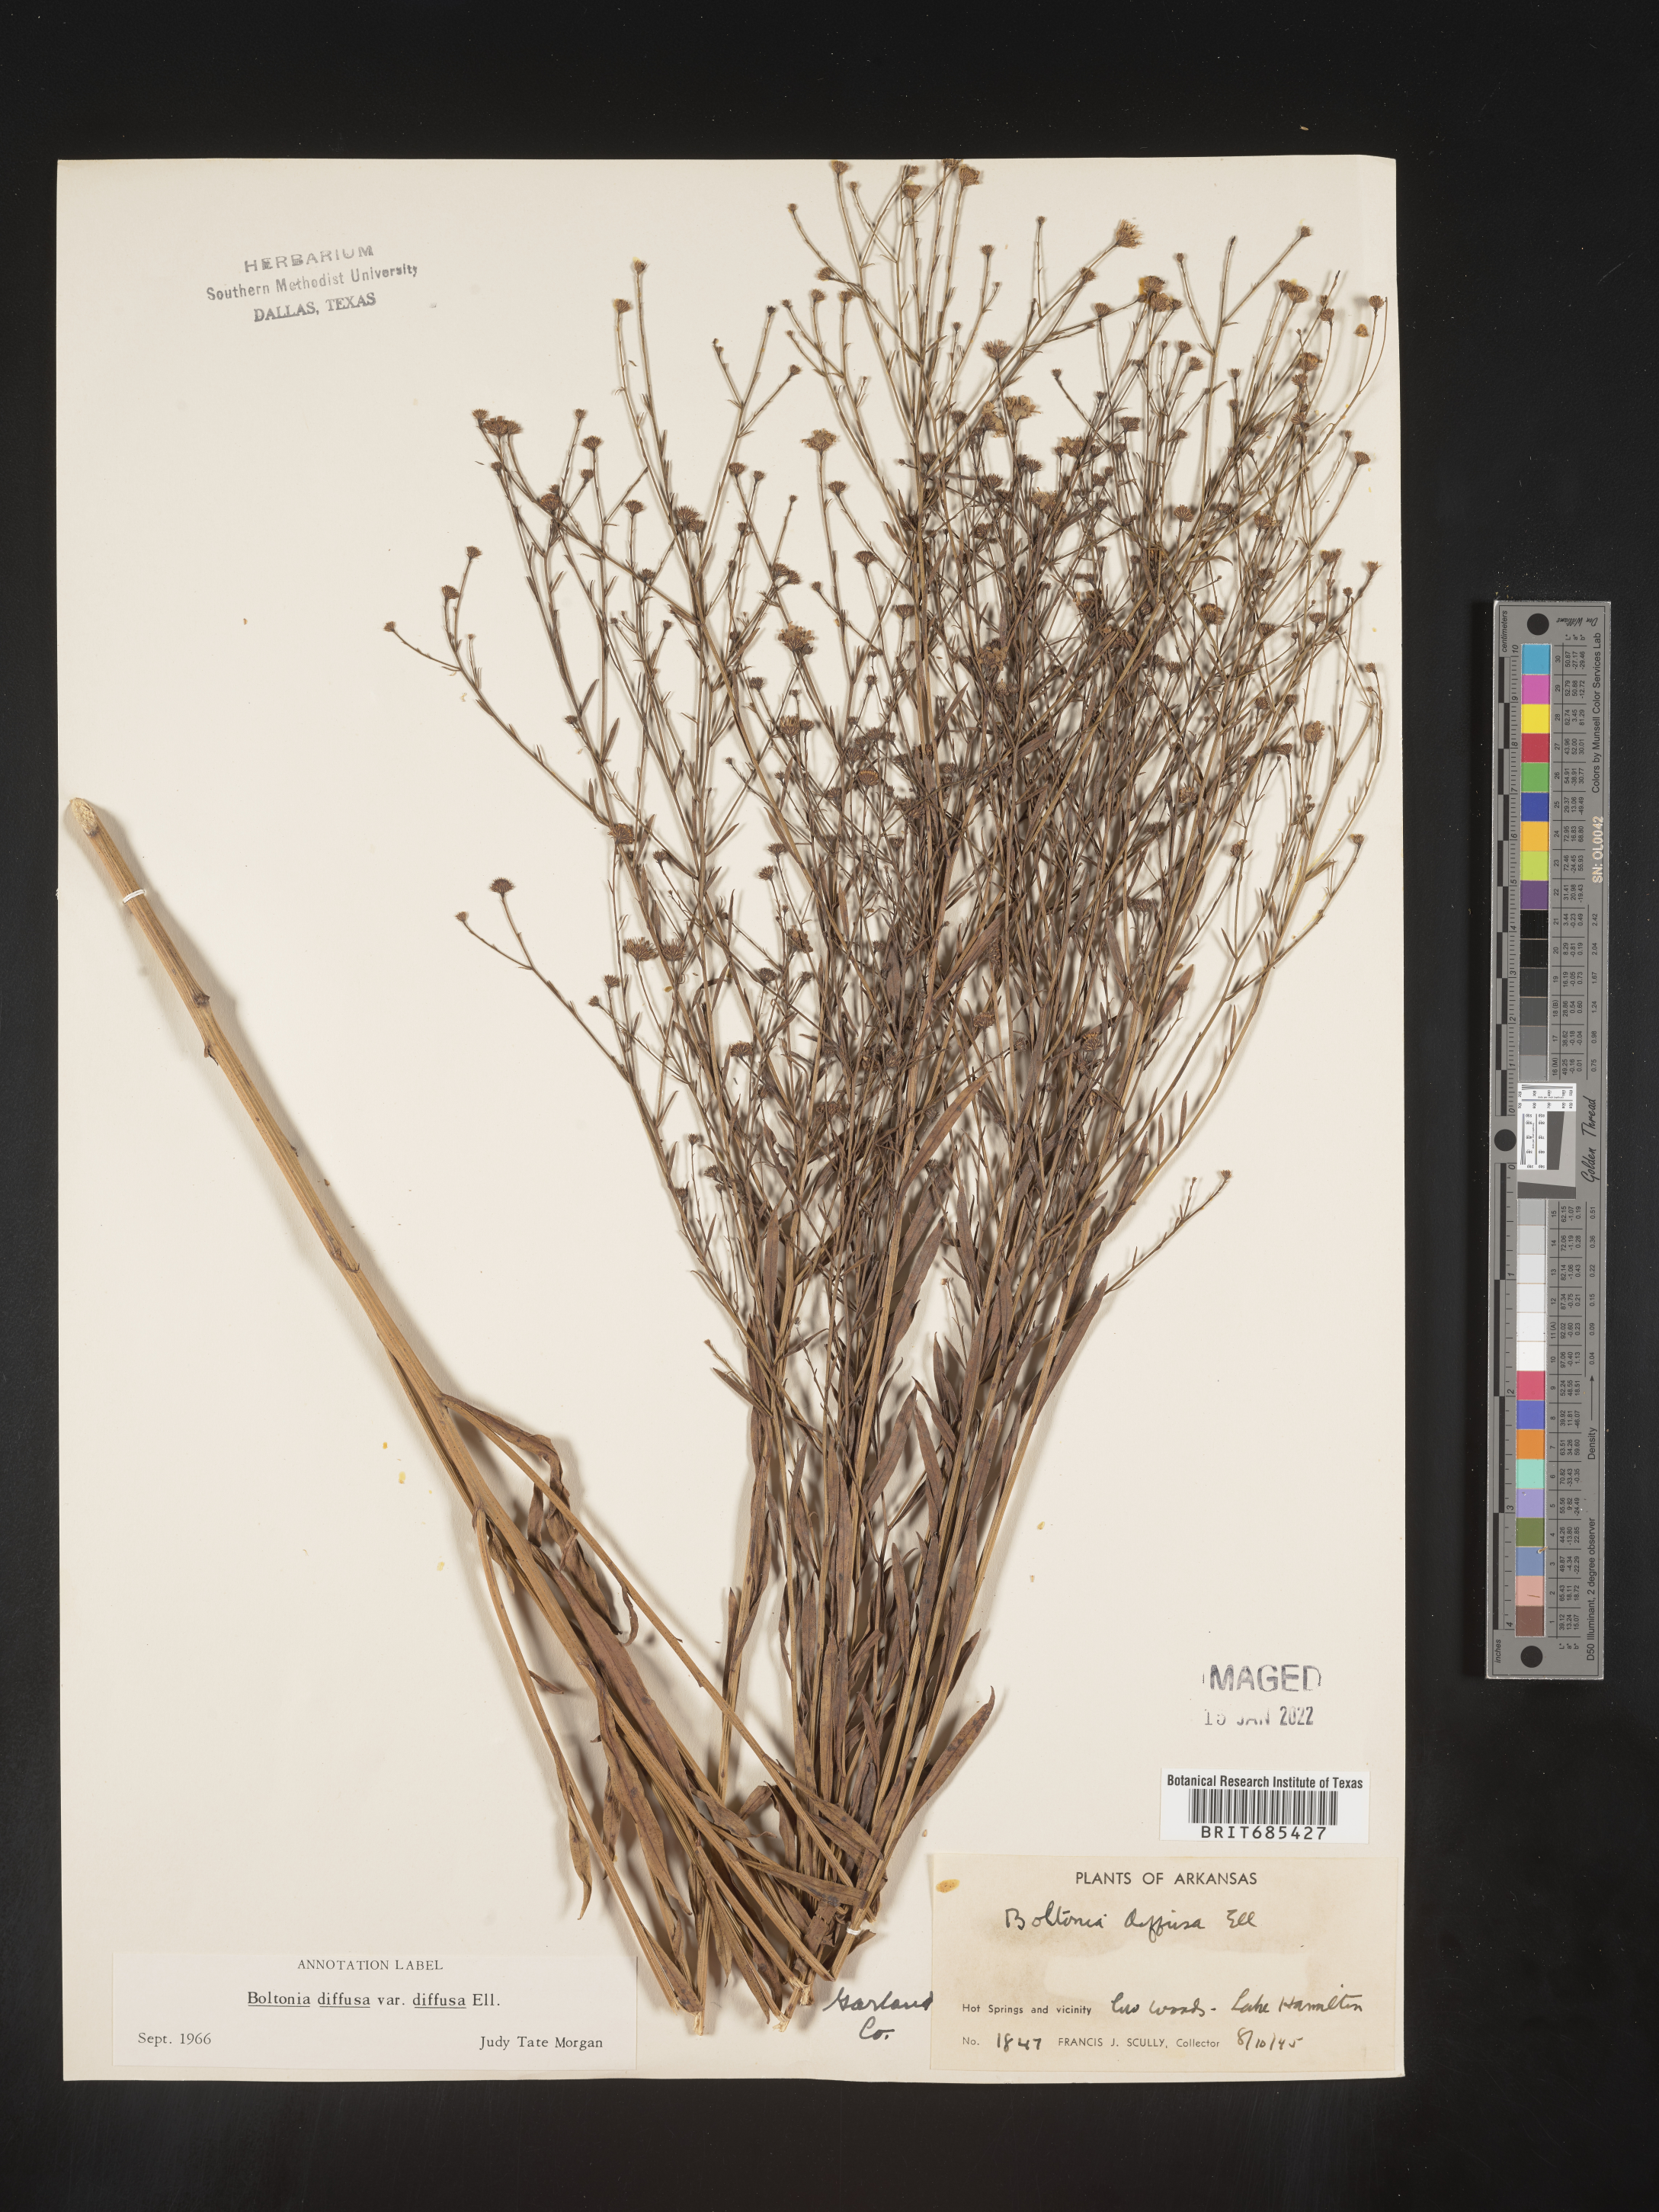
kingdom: Plantae
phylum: Tracheophyta
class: Magnoliopsida
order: Asterales
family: Asteraceae
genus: Boltonia
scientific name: Boltonia diffusa
